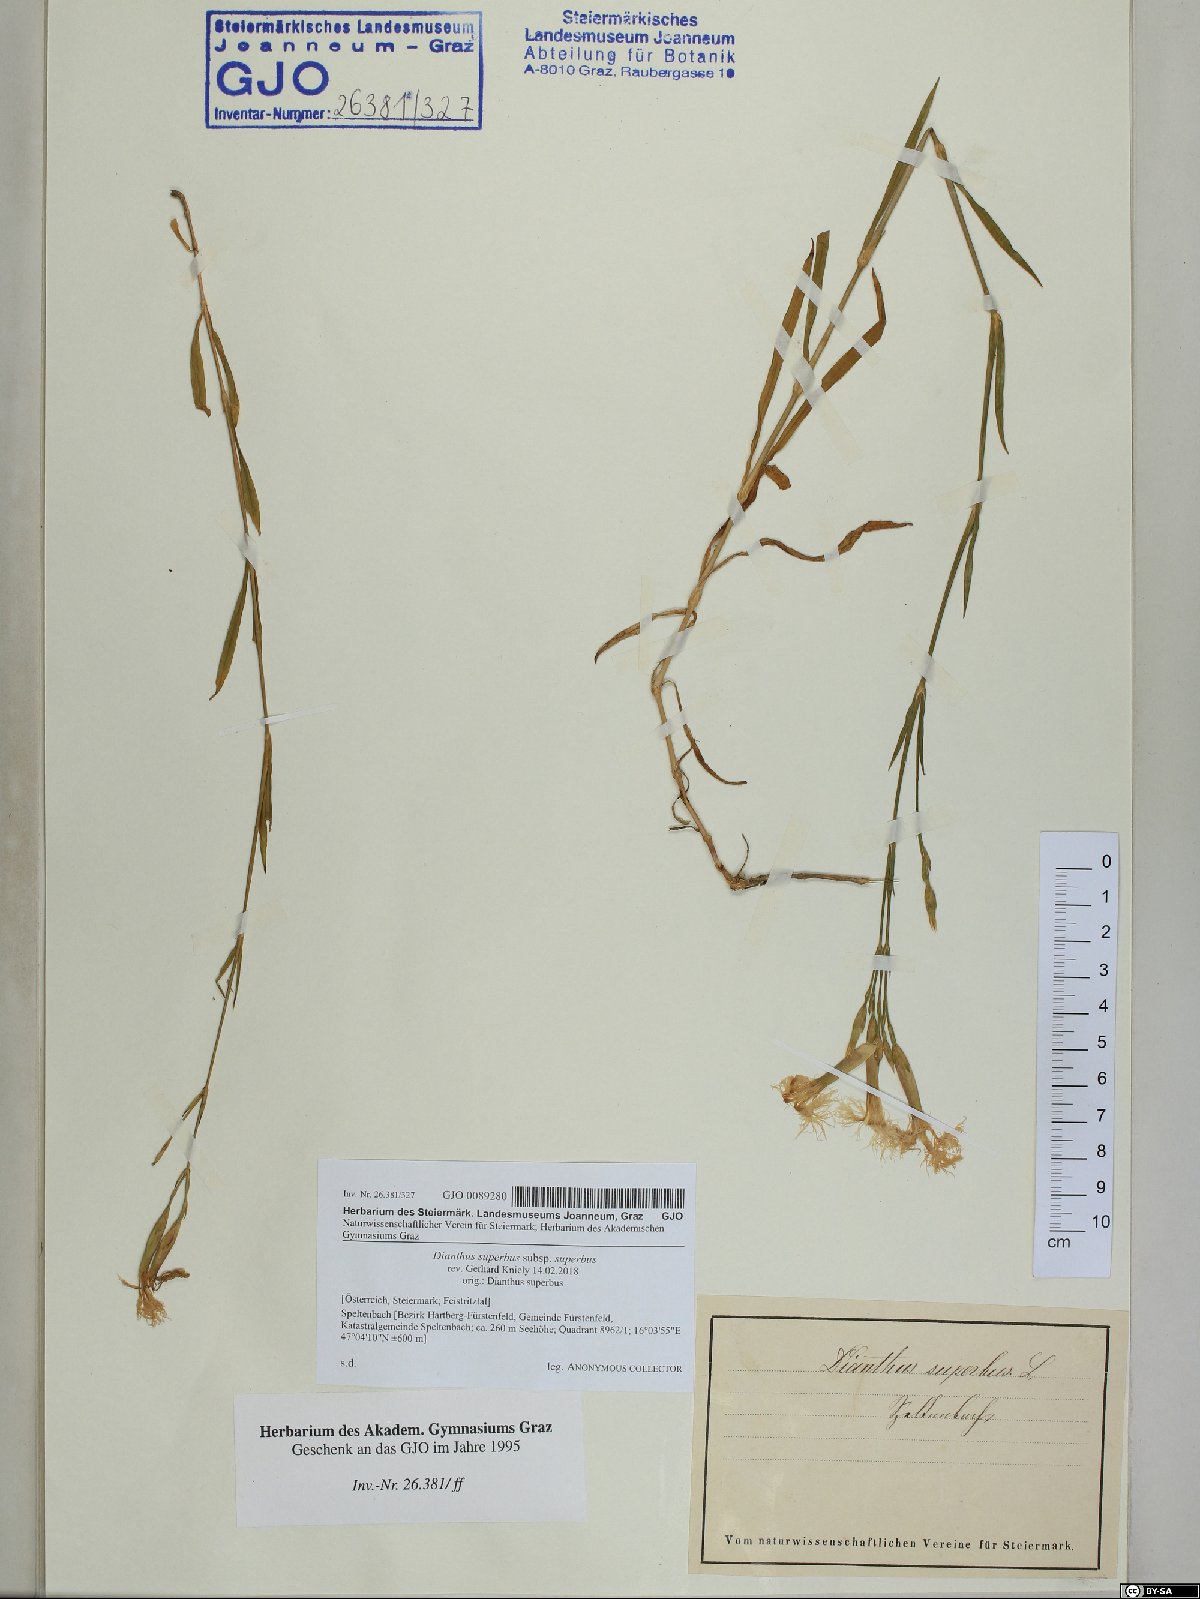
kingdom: Plantae
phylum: Tracheophyta
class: Magnoliopsida
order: Caryophyllales
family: Caryophyllaceae
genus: Dianthus
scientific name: Dianthus superbus
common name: Fringed pink
